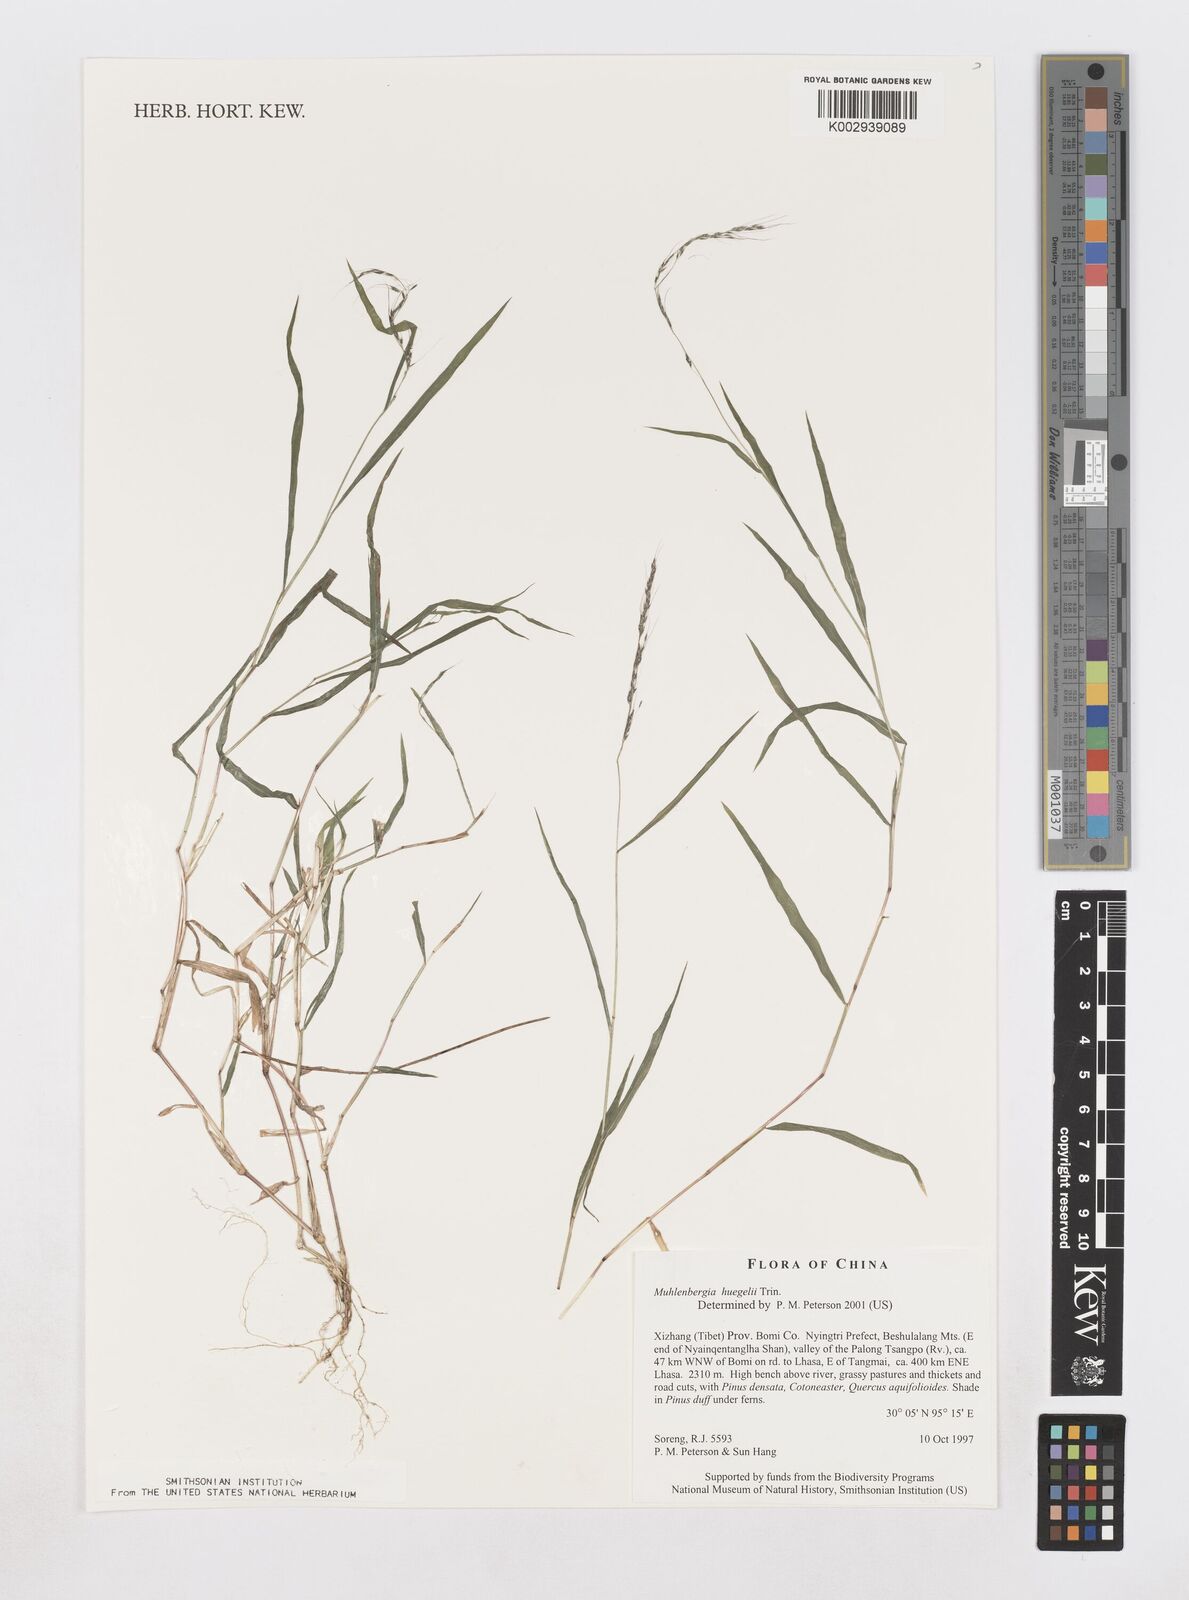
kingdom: Plantae
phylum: Tracheophyta
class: Liliopsida
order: Poales
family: Poaceae
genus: Muhlenbergia
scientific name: Muhlenbergia huegelii
